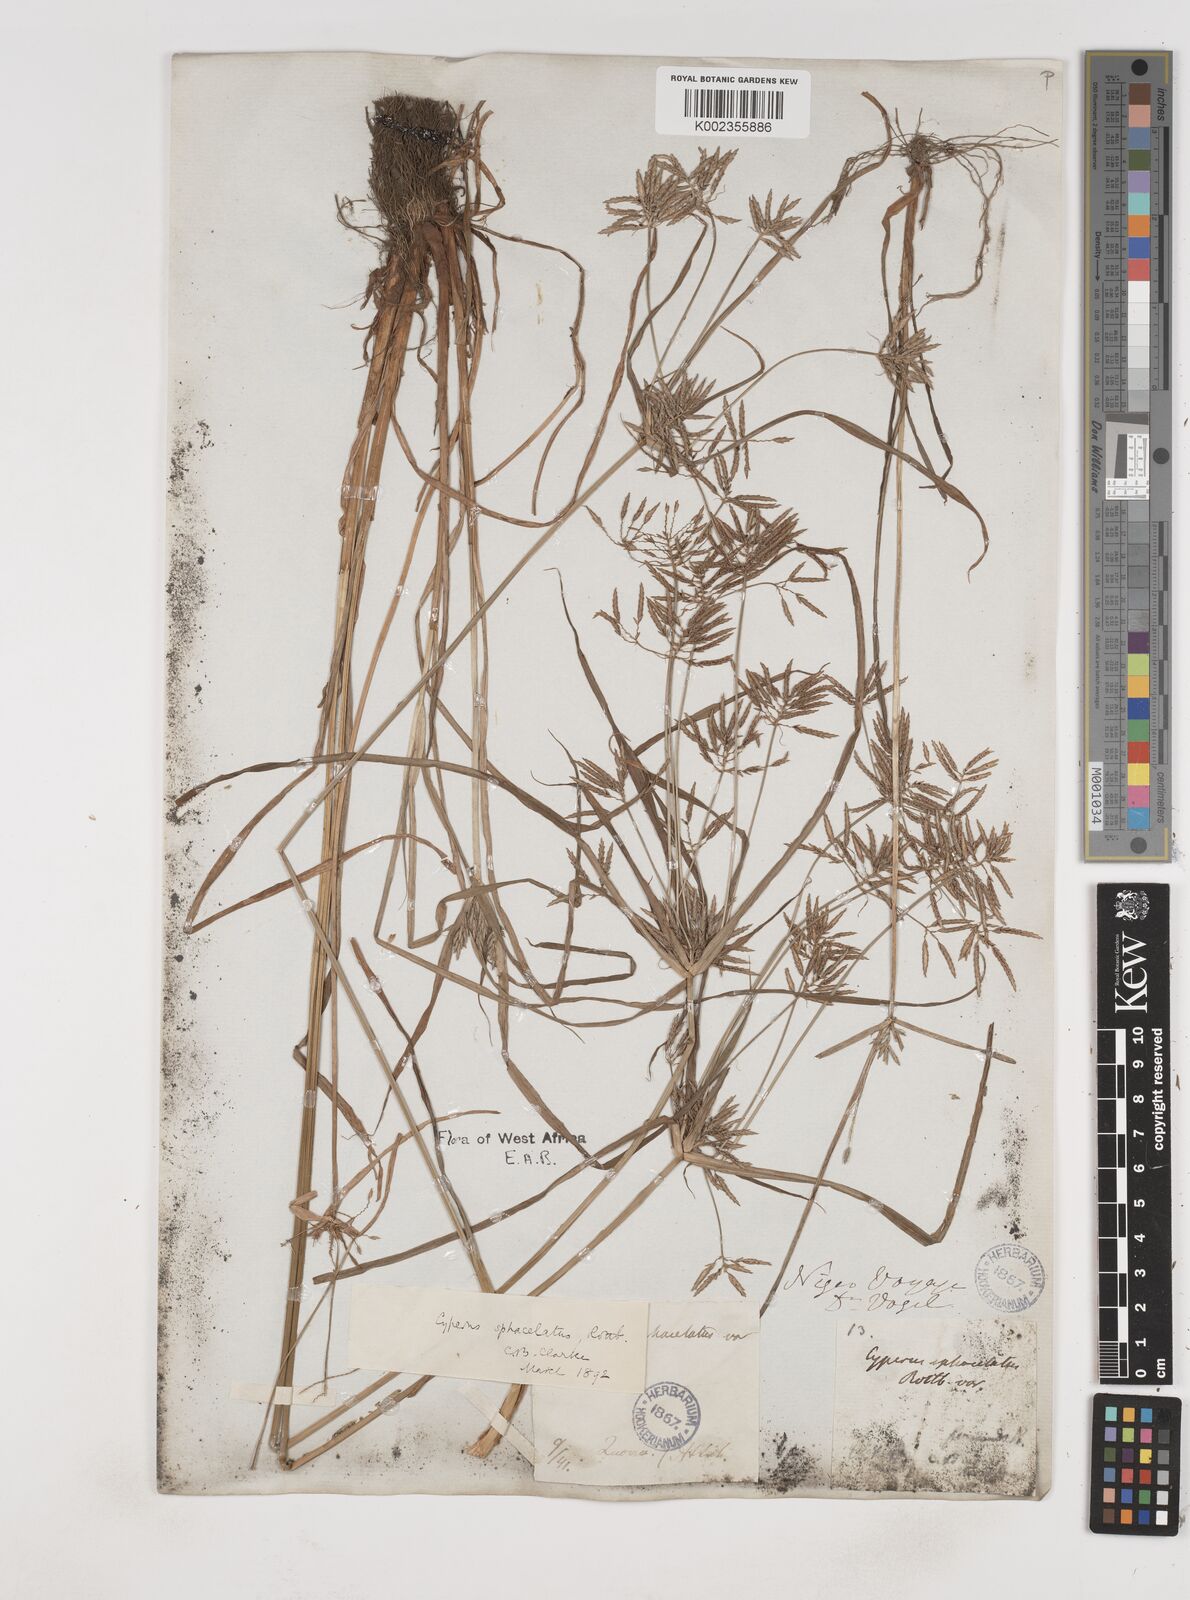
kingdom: Plantae
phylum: Tracheophyta
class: Liliopsida
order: Poales
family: Cyperaceae
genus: Cyperus
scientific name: Cyperus sphacelatus
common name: Roadside flatsedge
